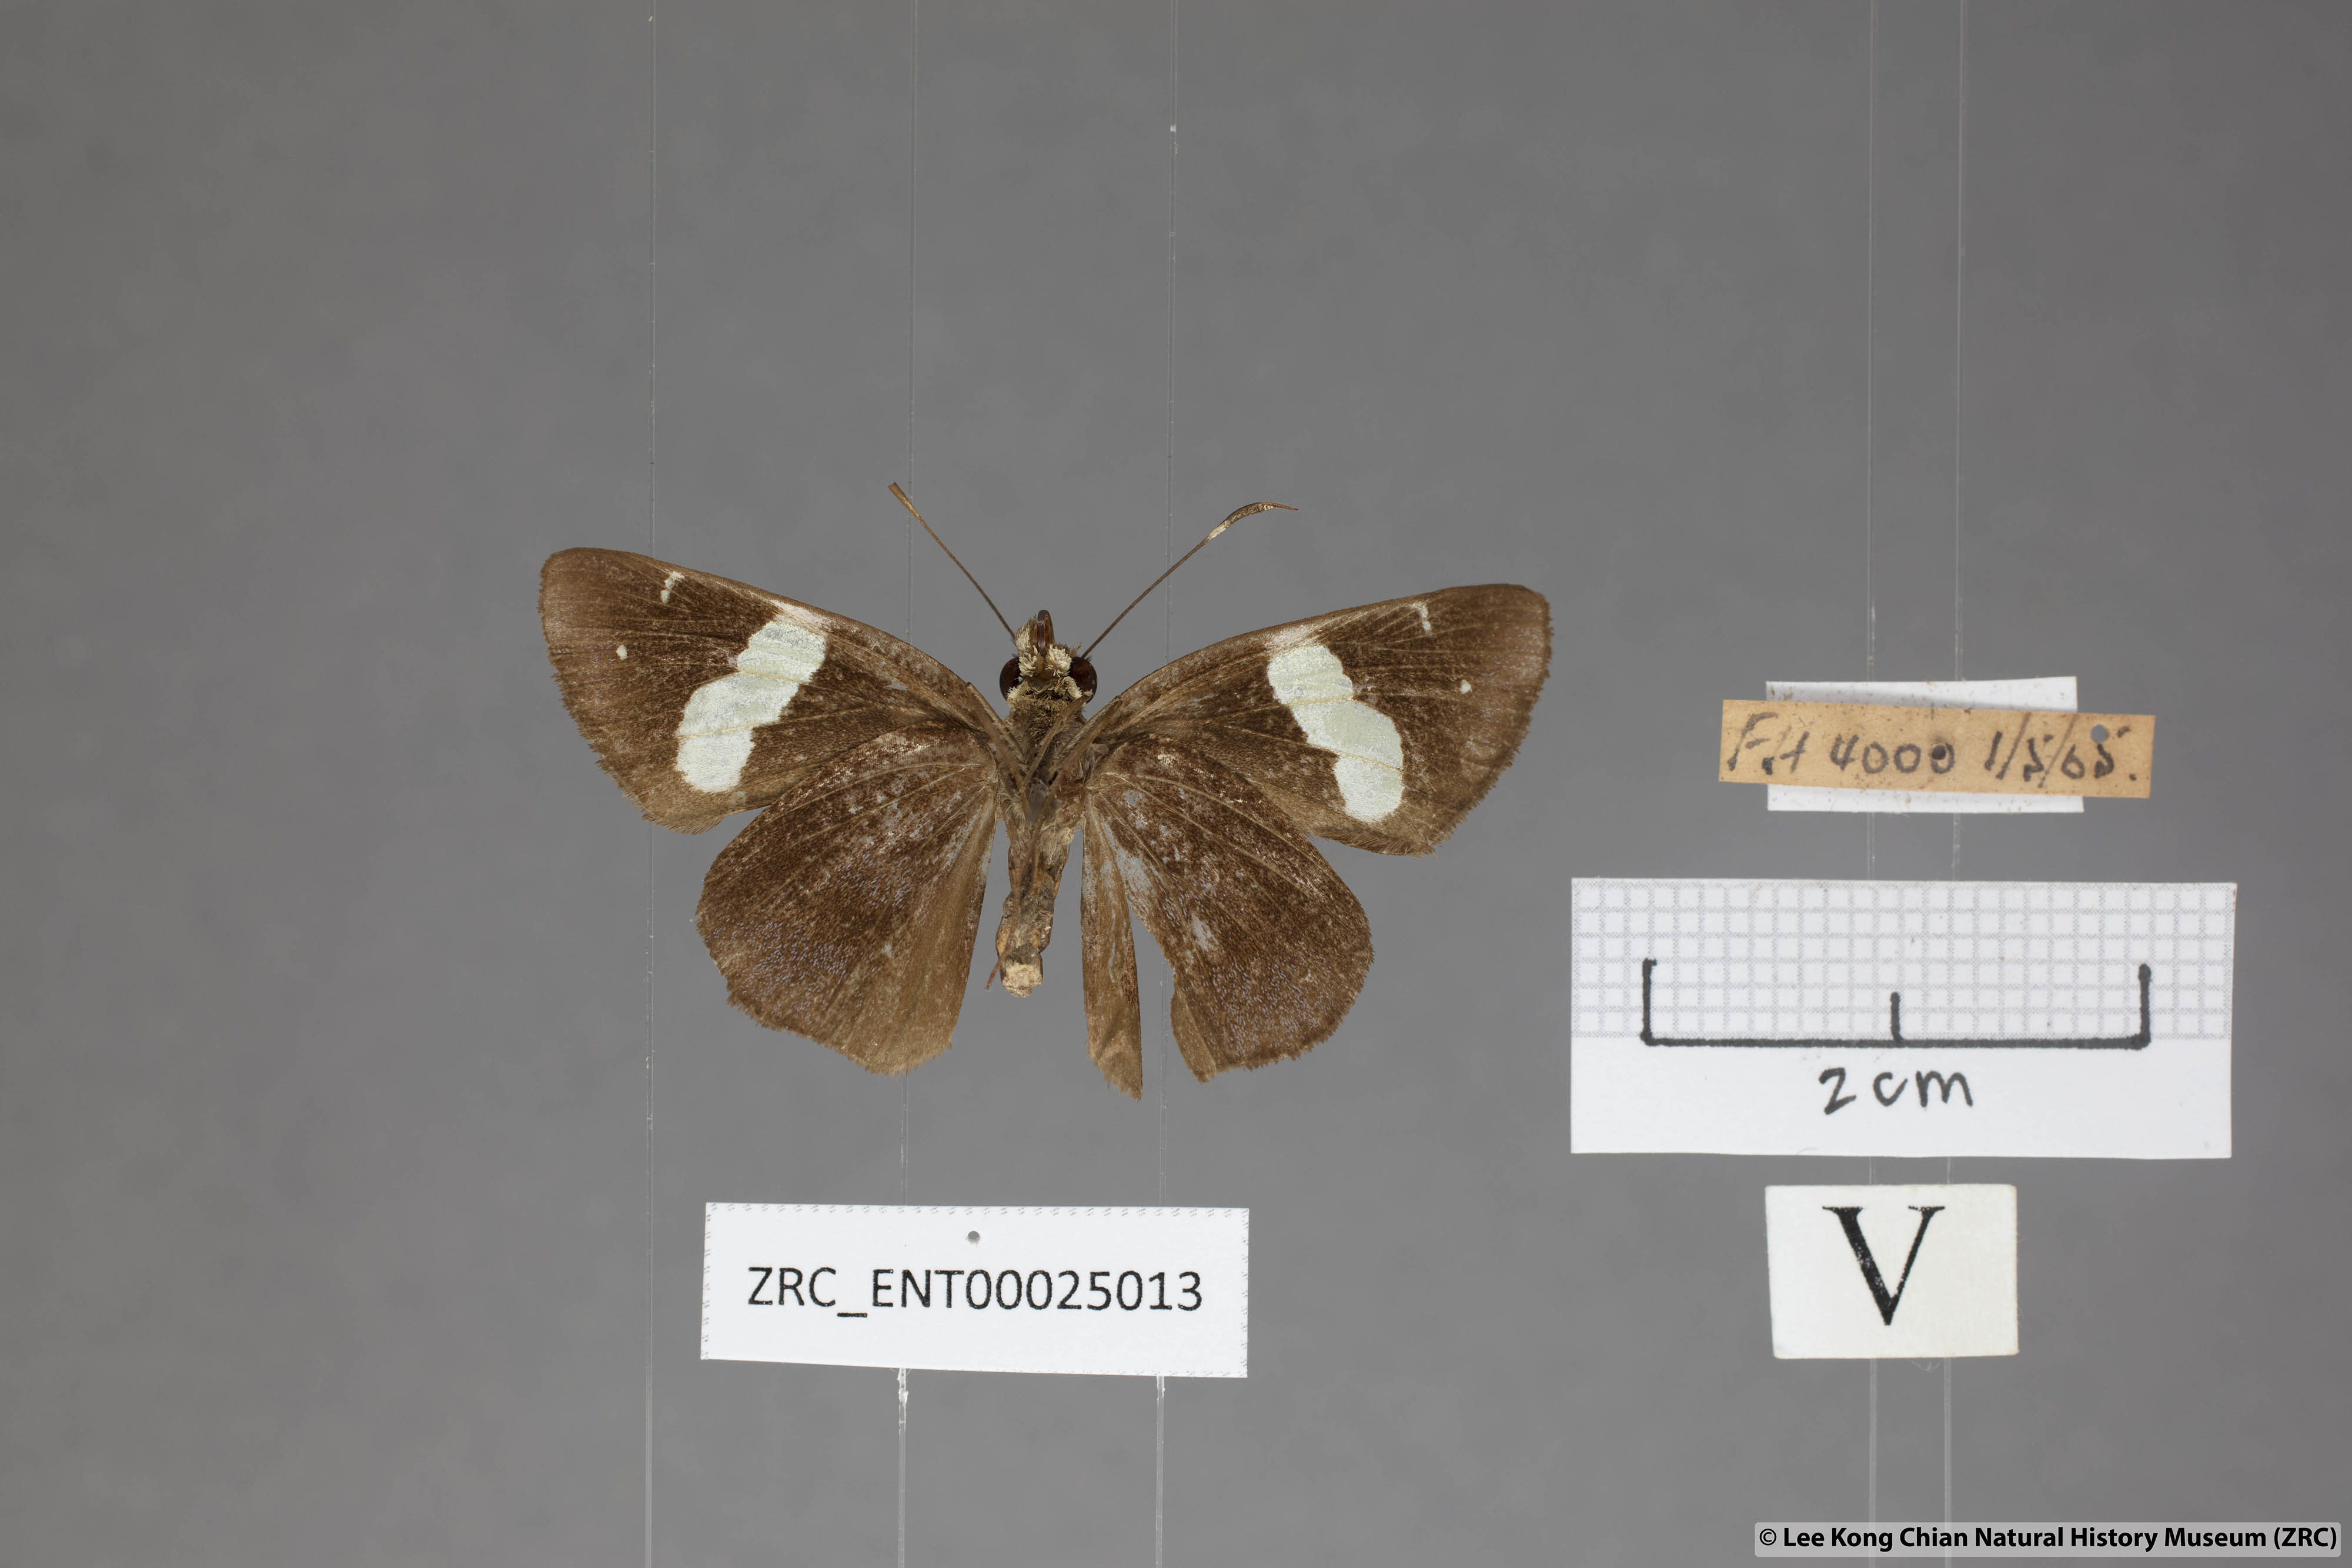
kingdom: Animalia
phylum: Arthropoda
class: Insecta
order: Lepidoptera
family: Hesperiidae
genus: Notocrypta
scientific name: Notocrypta feisthamelii
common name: Spotted demon
